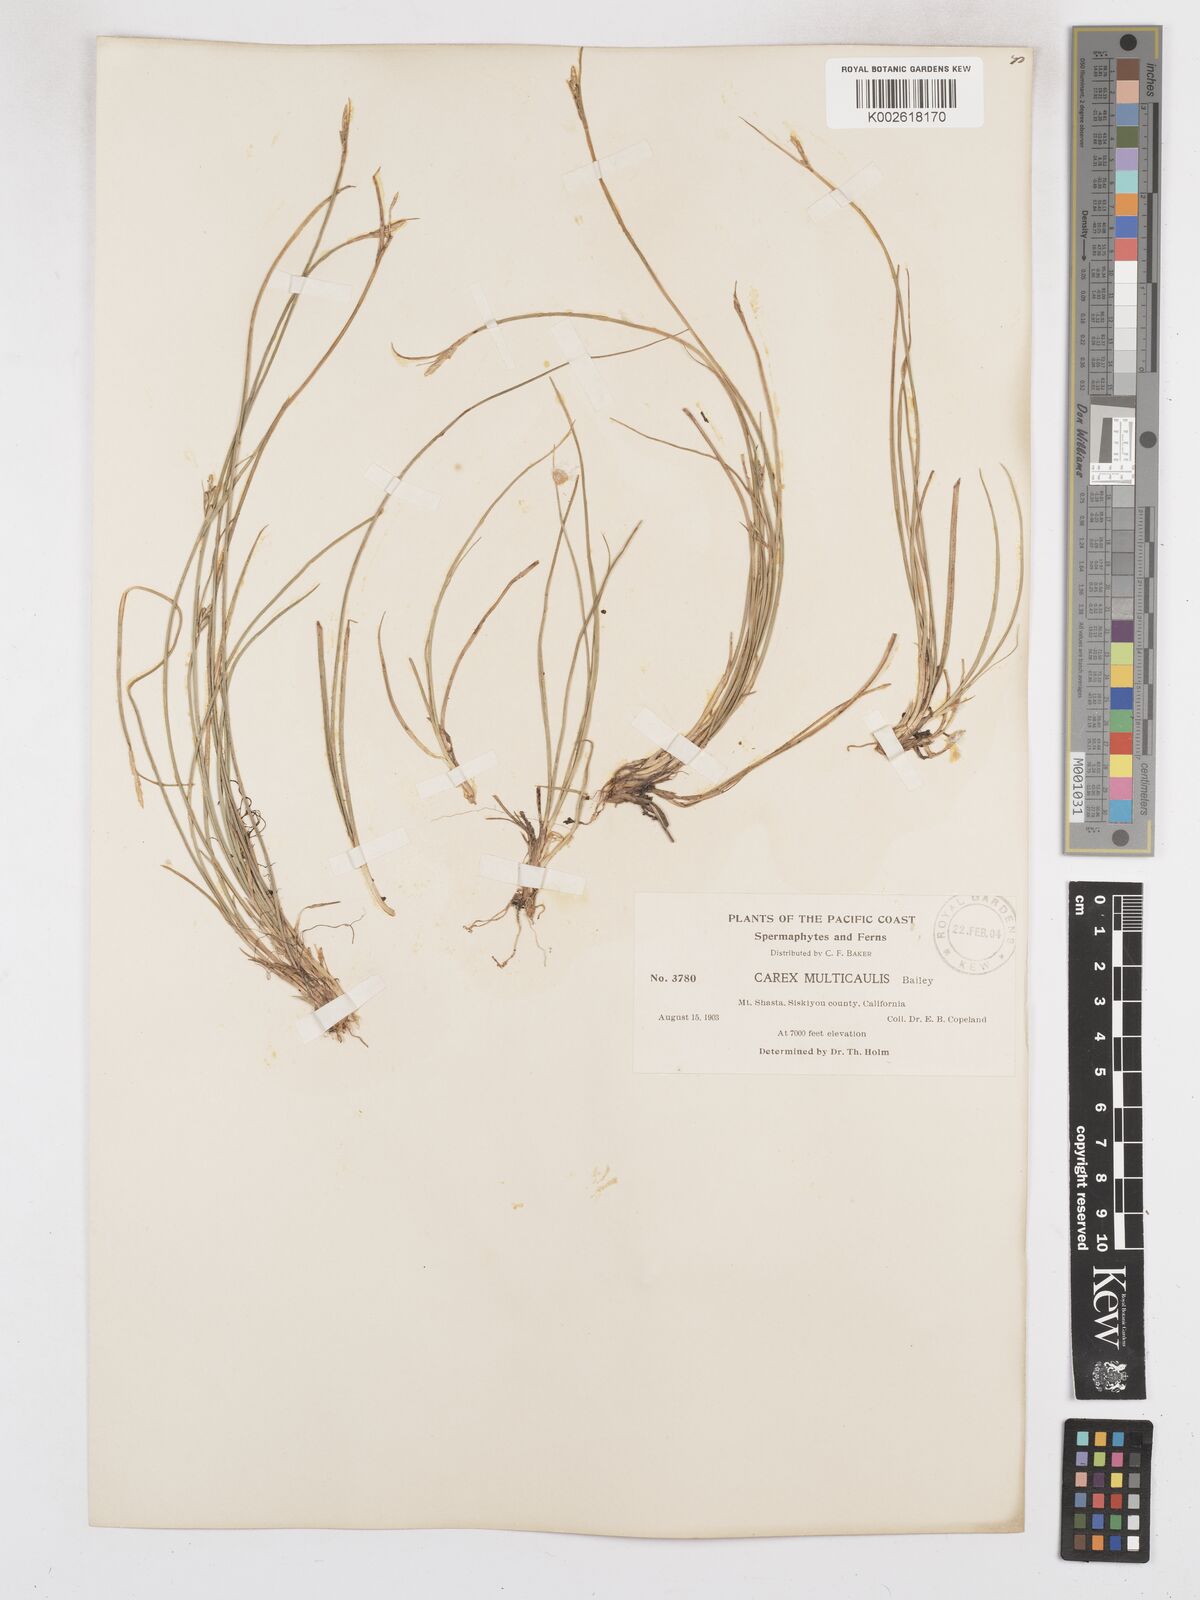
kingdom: Plantae
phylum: Tracheophyta
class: Liliopsida
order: Poales
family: Cyperaceae
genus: Carex
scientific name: Carex multicaulis
